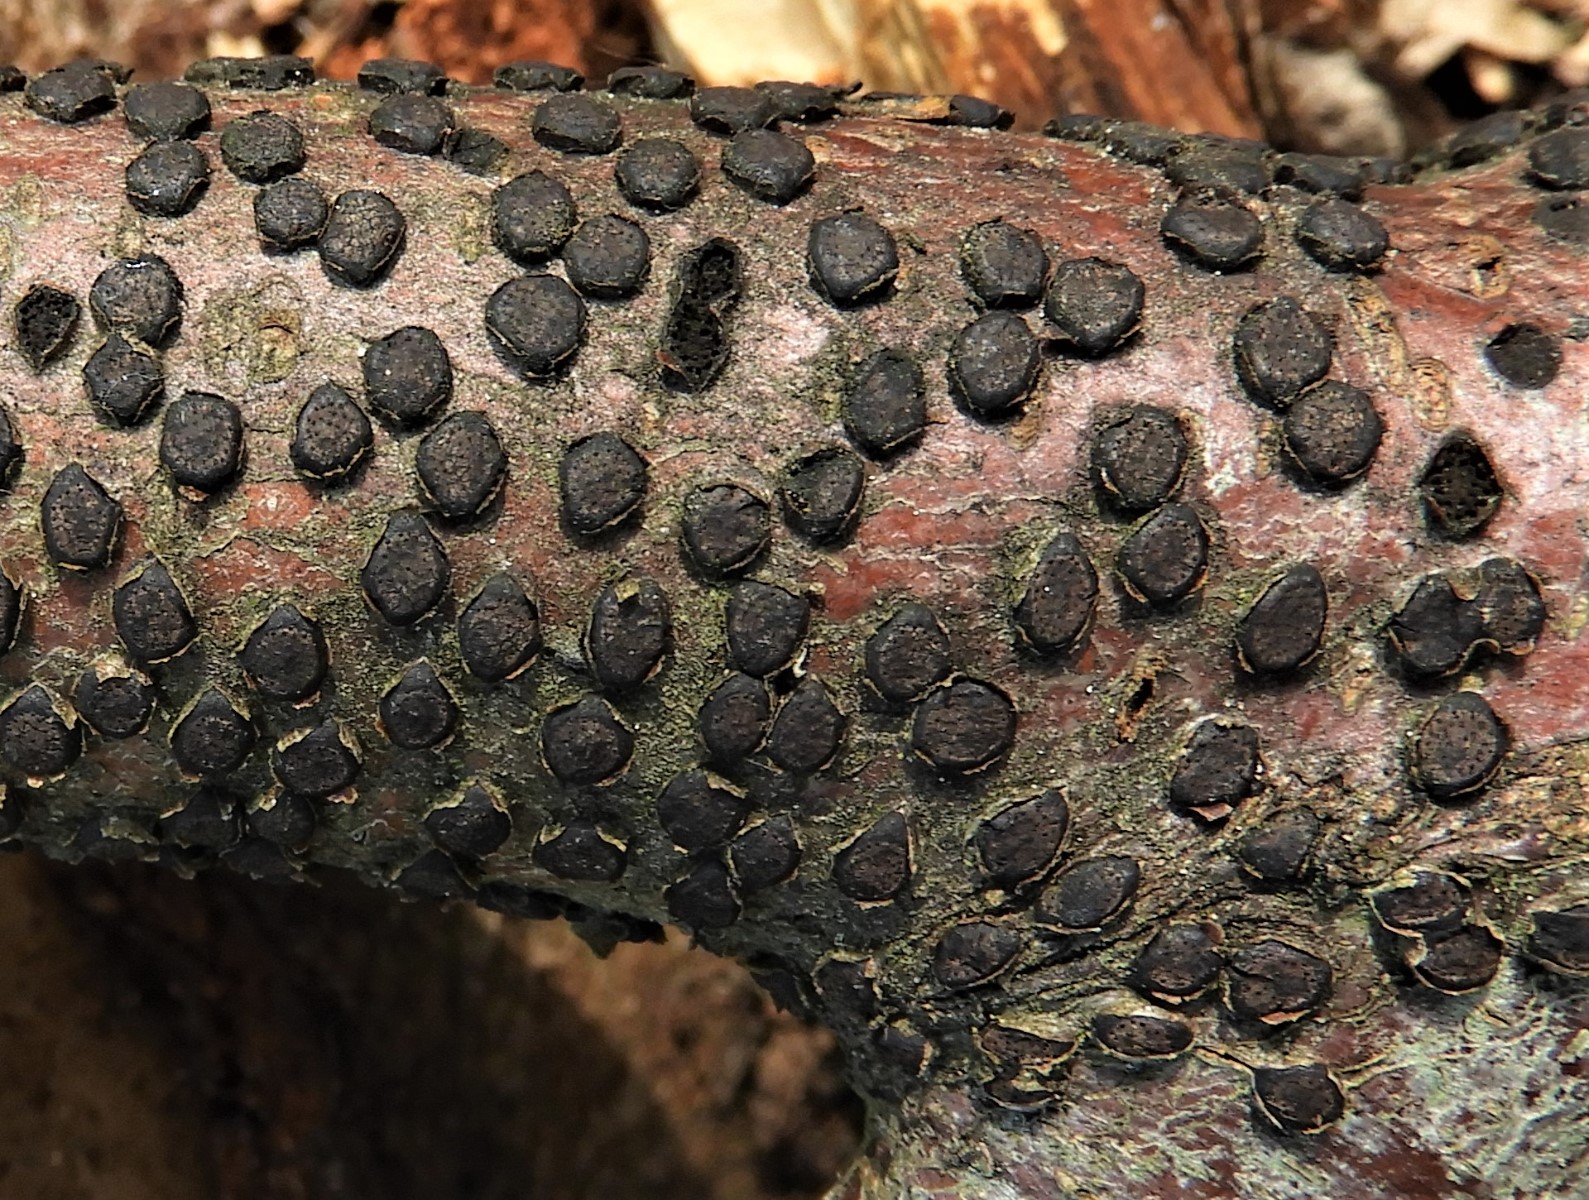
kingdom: Fungi
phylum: Ascomycota
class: Sordariomycetes
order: Xylariales
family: Diatrypaceae
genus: Diatrype
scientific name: Diatrype disciformis
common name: kant-kulskorpe
